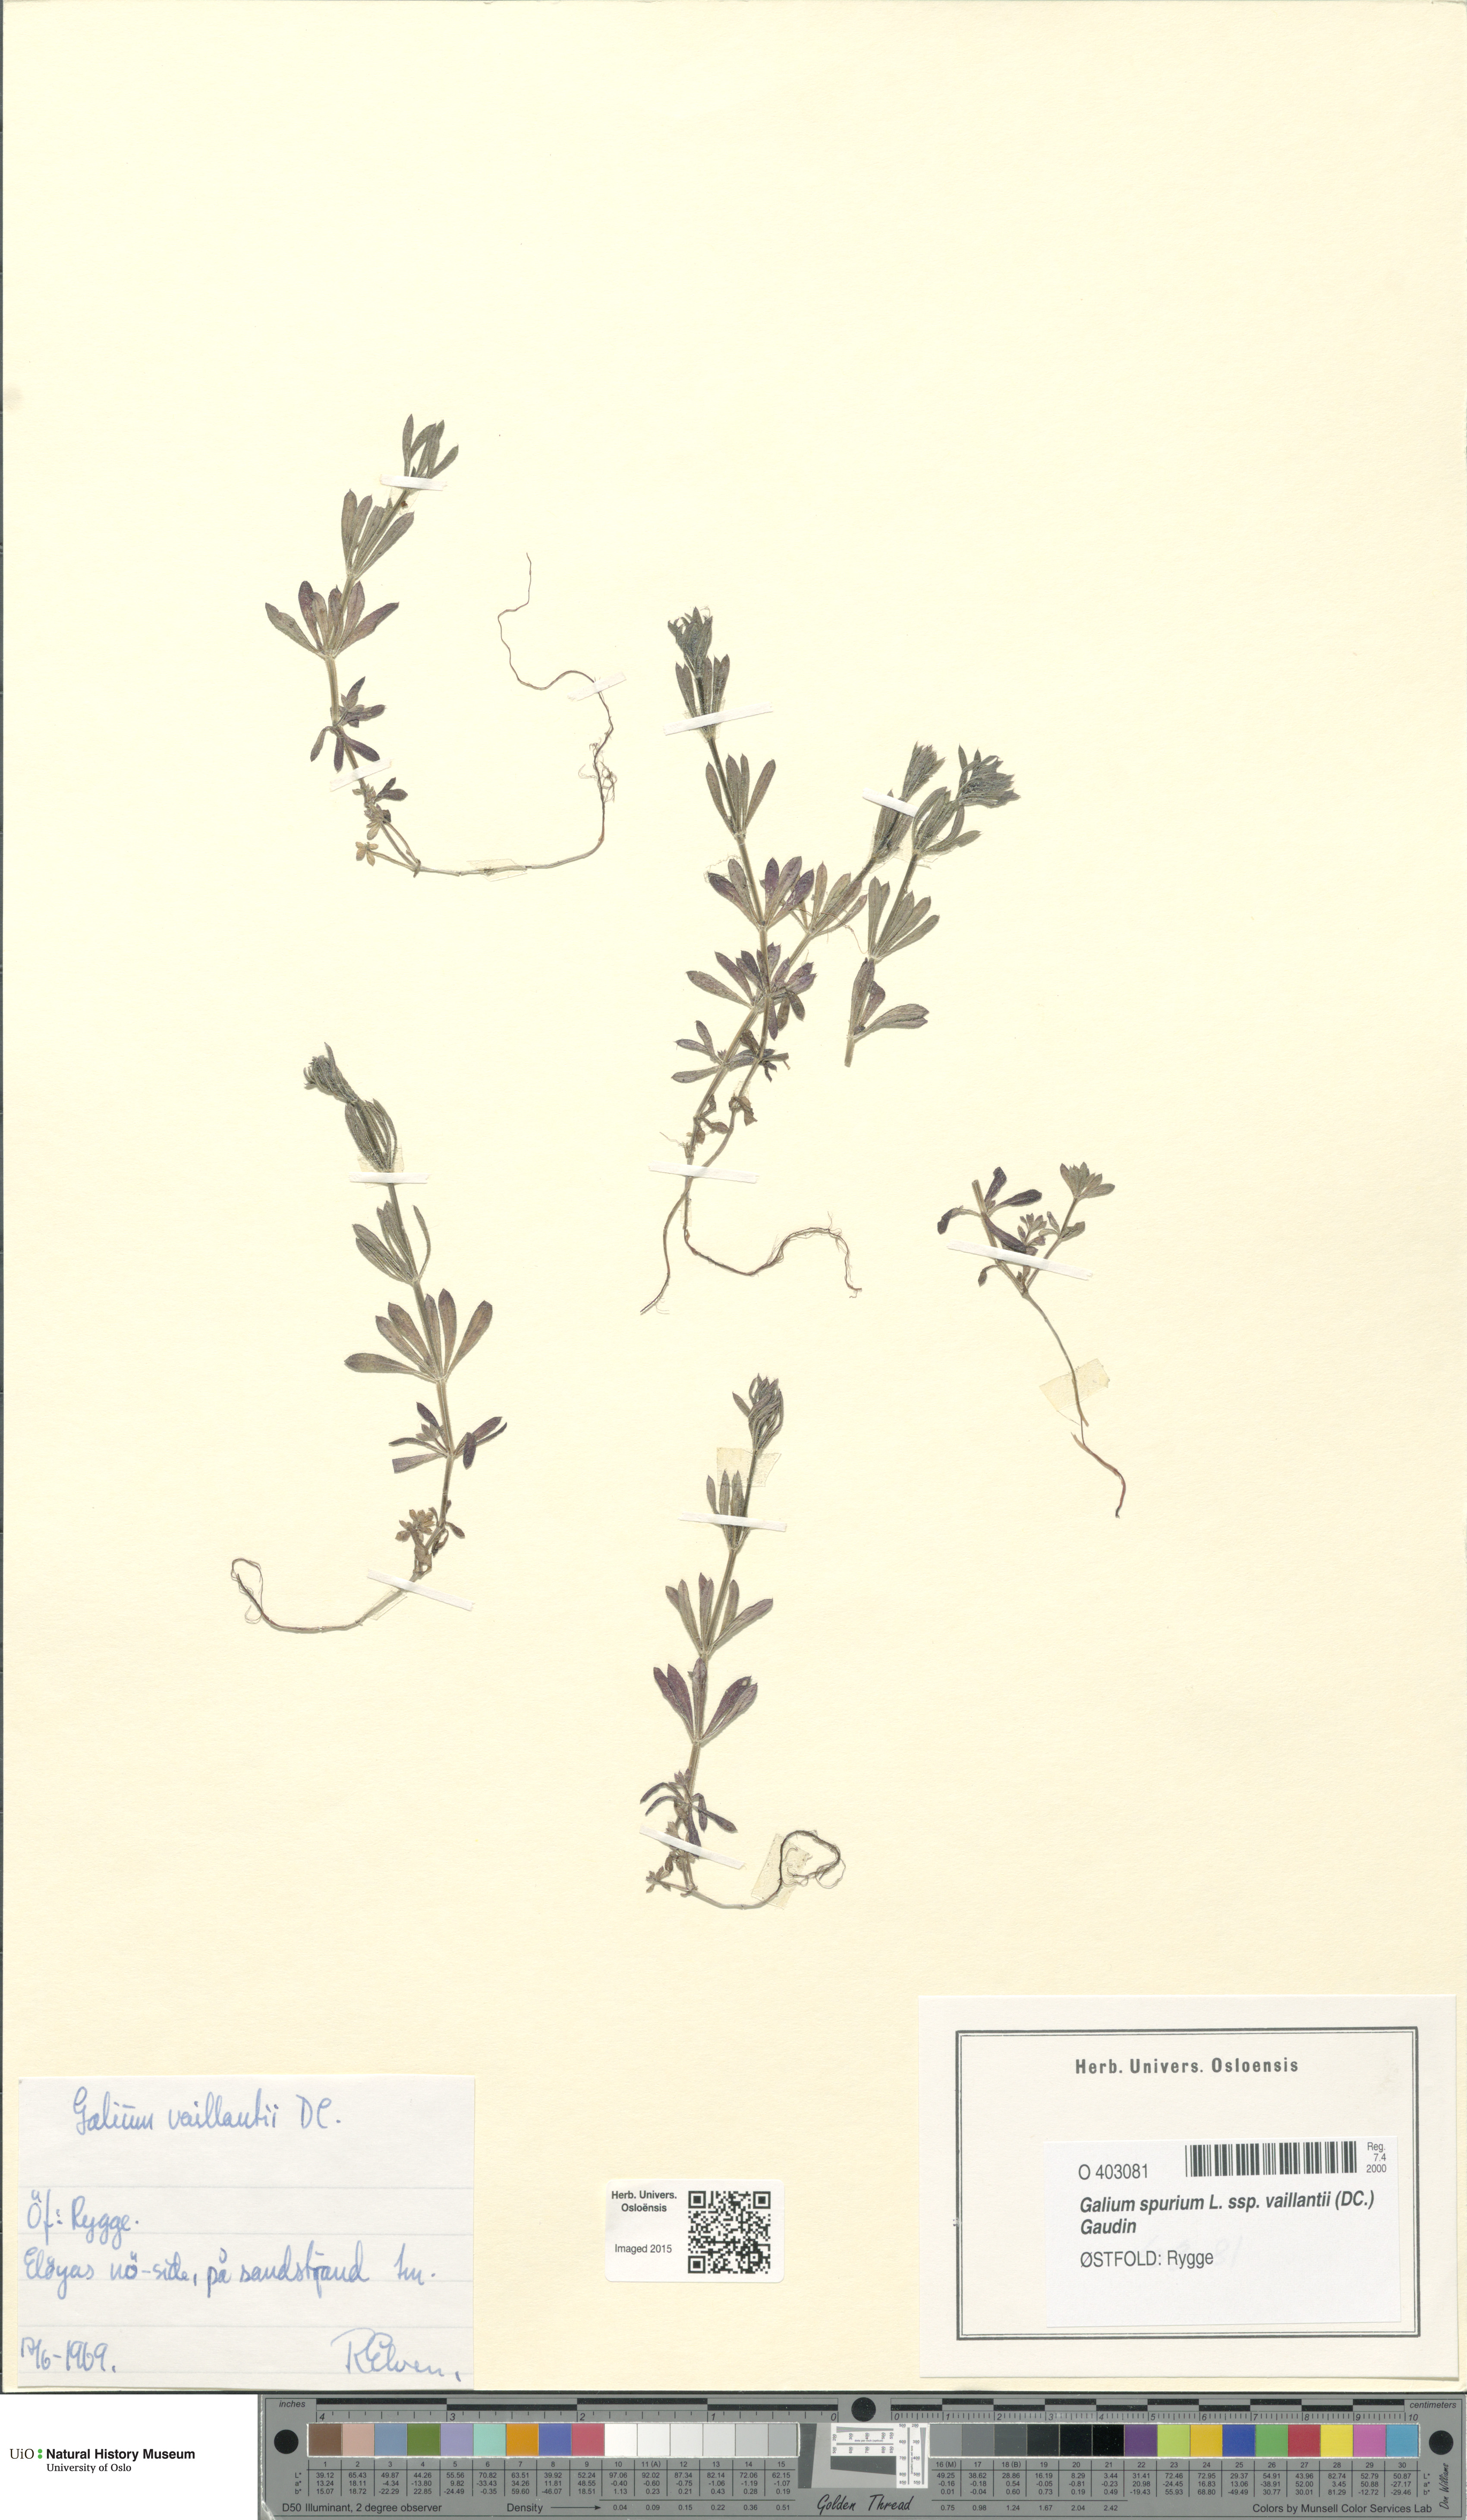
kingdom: Plantae
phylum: Tracheophyta
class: Magnoliopsida
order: Gentianales
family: Rubiaceae
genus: Galium
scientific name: Galium spurium
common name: False cleavers
